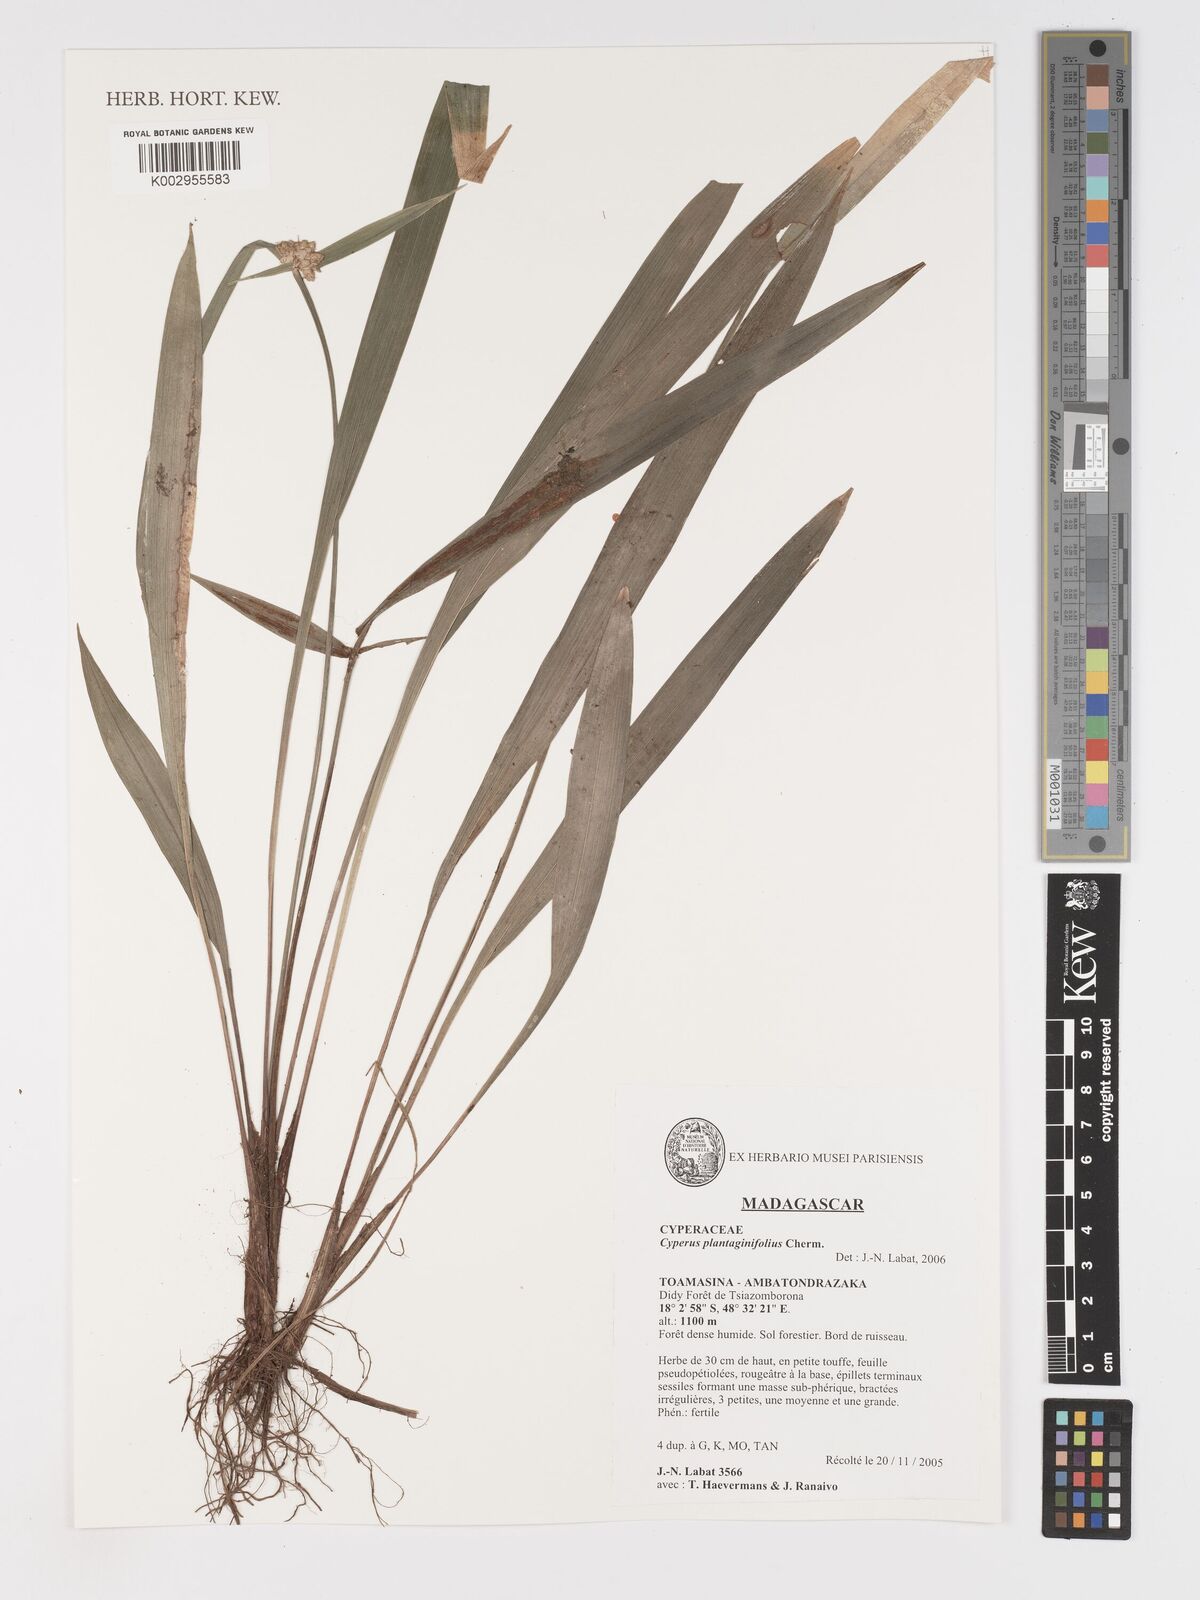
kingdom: Plantae
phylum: Tracheophyta
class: Liliopsida
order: Poales
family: Cyperaceae
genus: Cyperus
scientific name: Cyperus plantaginifolius
